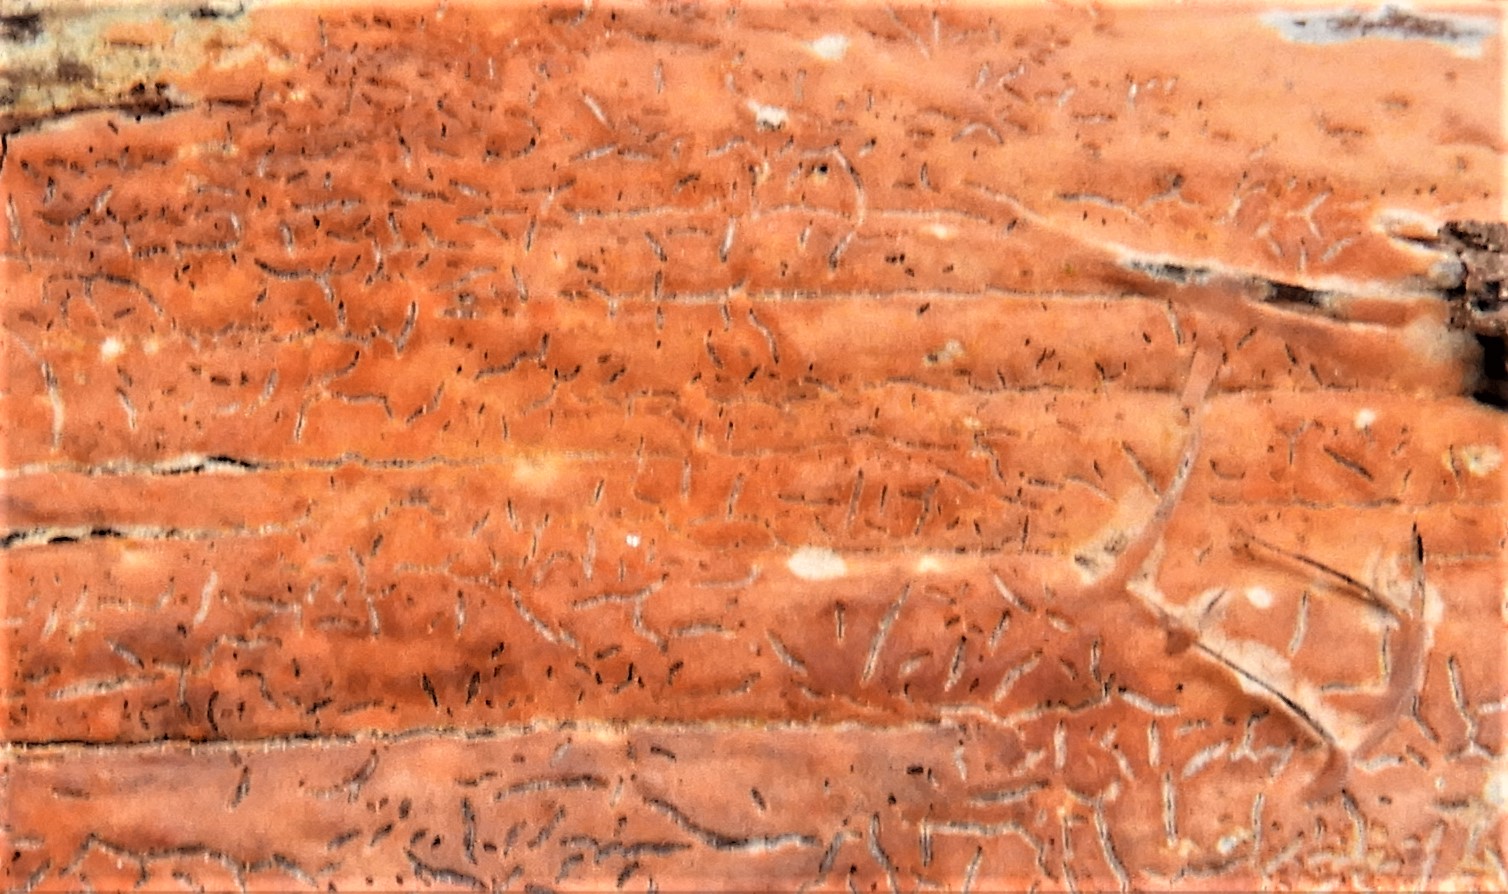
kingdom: Fungi
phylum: Basidiomycota
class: Agaricomycetes
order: Russulales
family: Peniophoraceae
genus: Peniophora
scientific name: Peniophora incarnata
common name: laksefarvet voksskind
